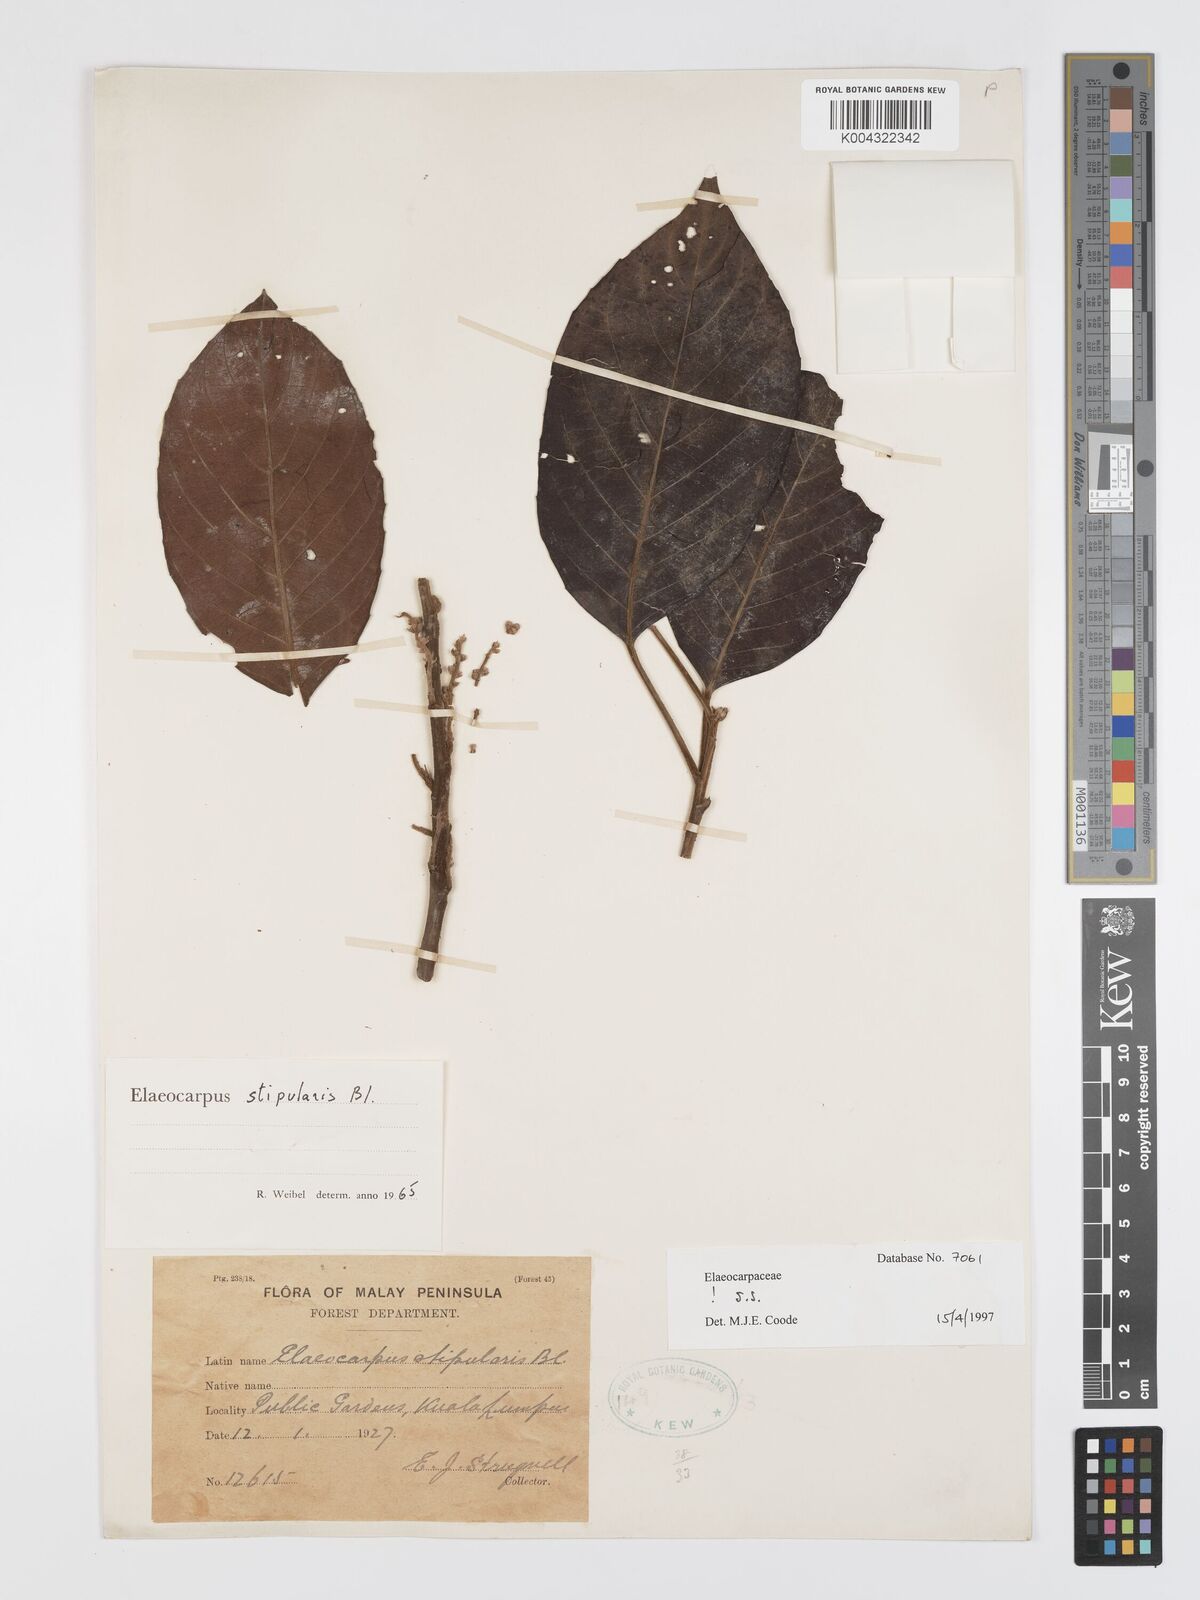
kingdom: Plantae
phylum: Tracheophyta
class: Magnoliopsida
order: Oxalidales
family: Elaeocarpaceae
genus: Elaeocarpus
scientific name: Elaeocarpus stipularis
